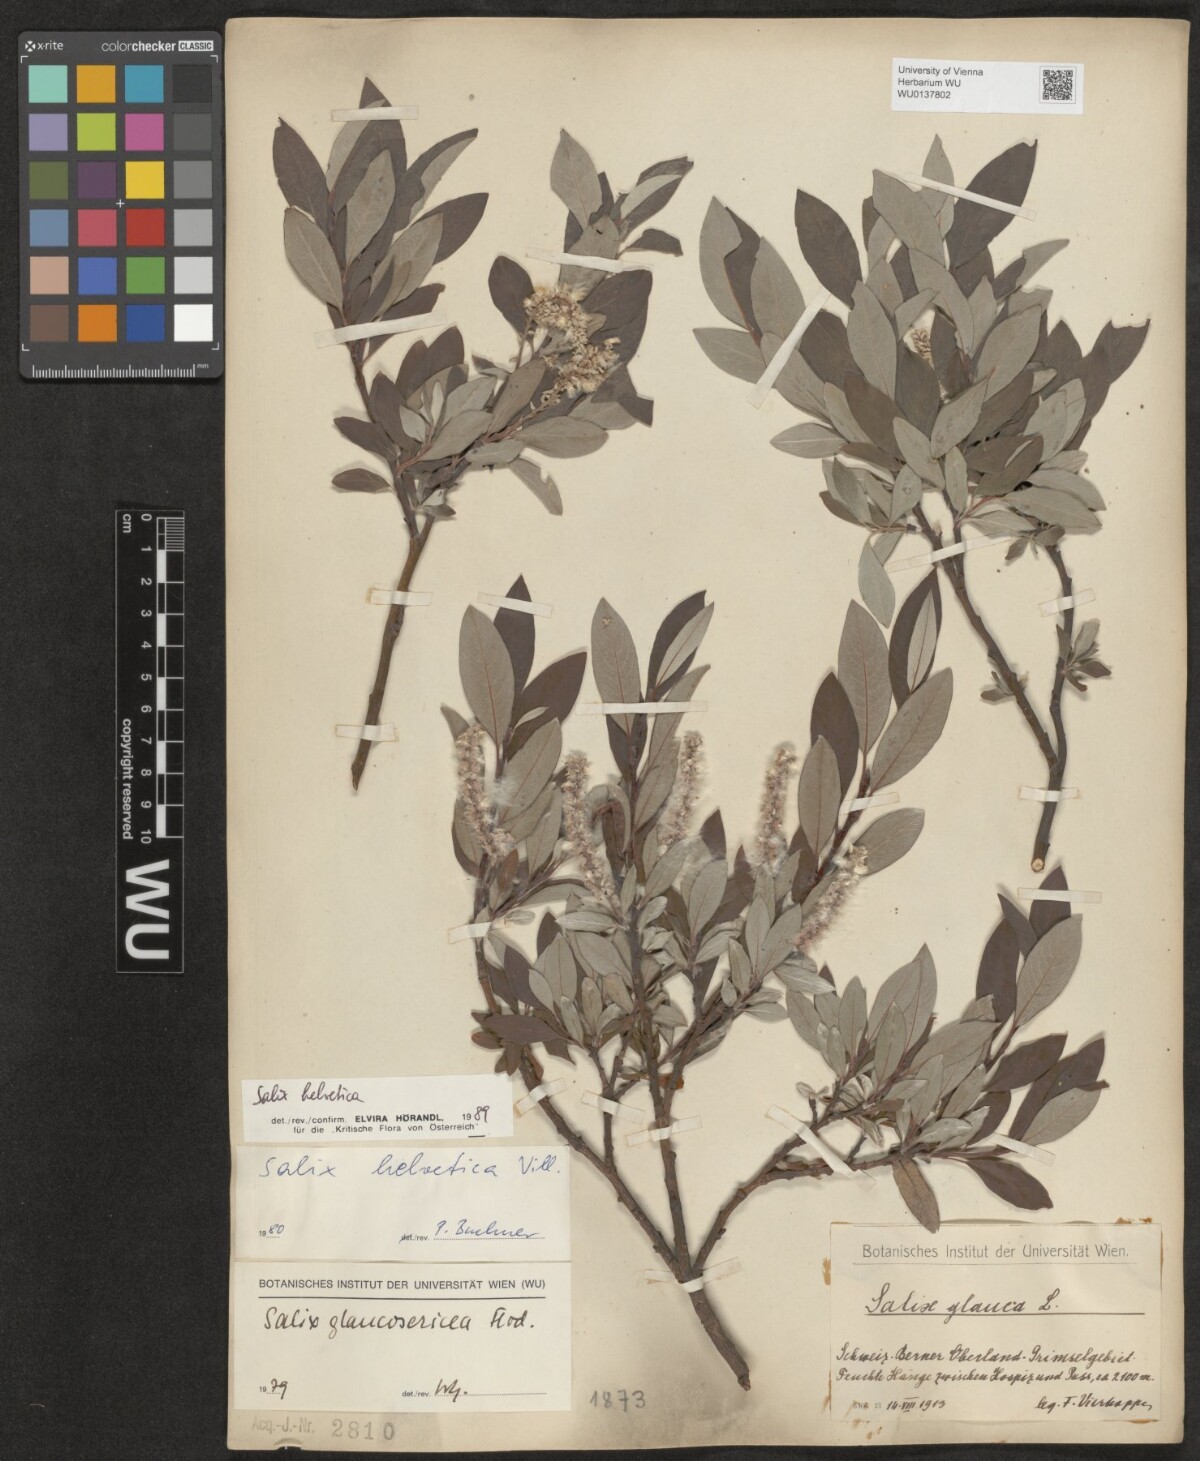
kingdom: Plantae
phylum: Tracheophyta
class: Magnoliopsida
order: Malpighiales
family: Salicaceae
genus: Salix
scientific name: Salix helvetica
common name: Swiss willow
